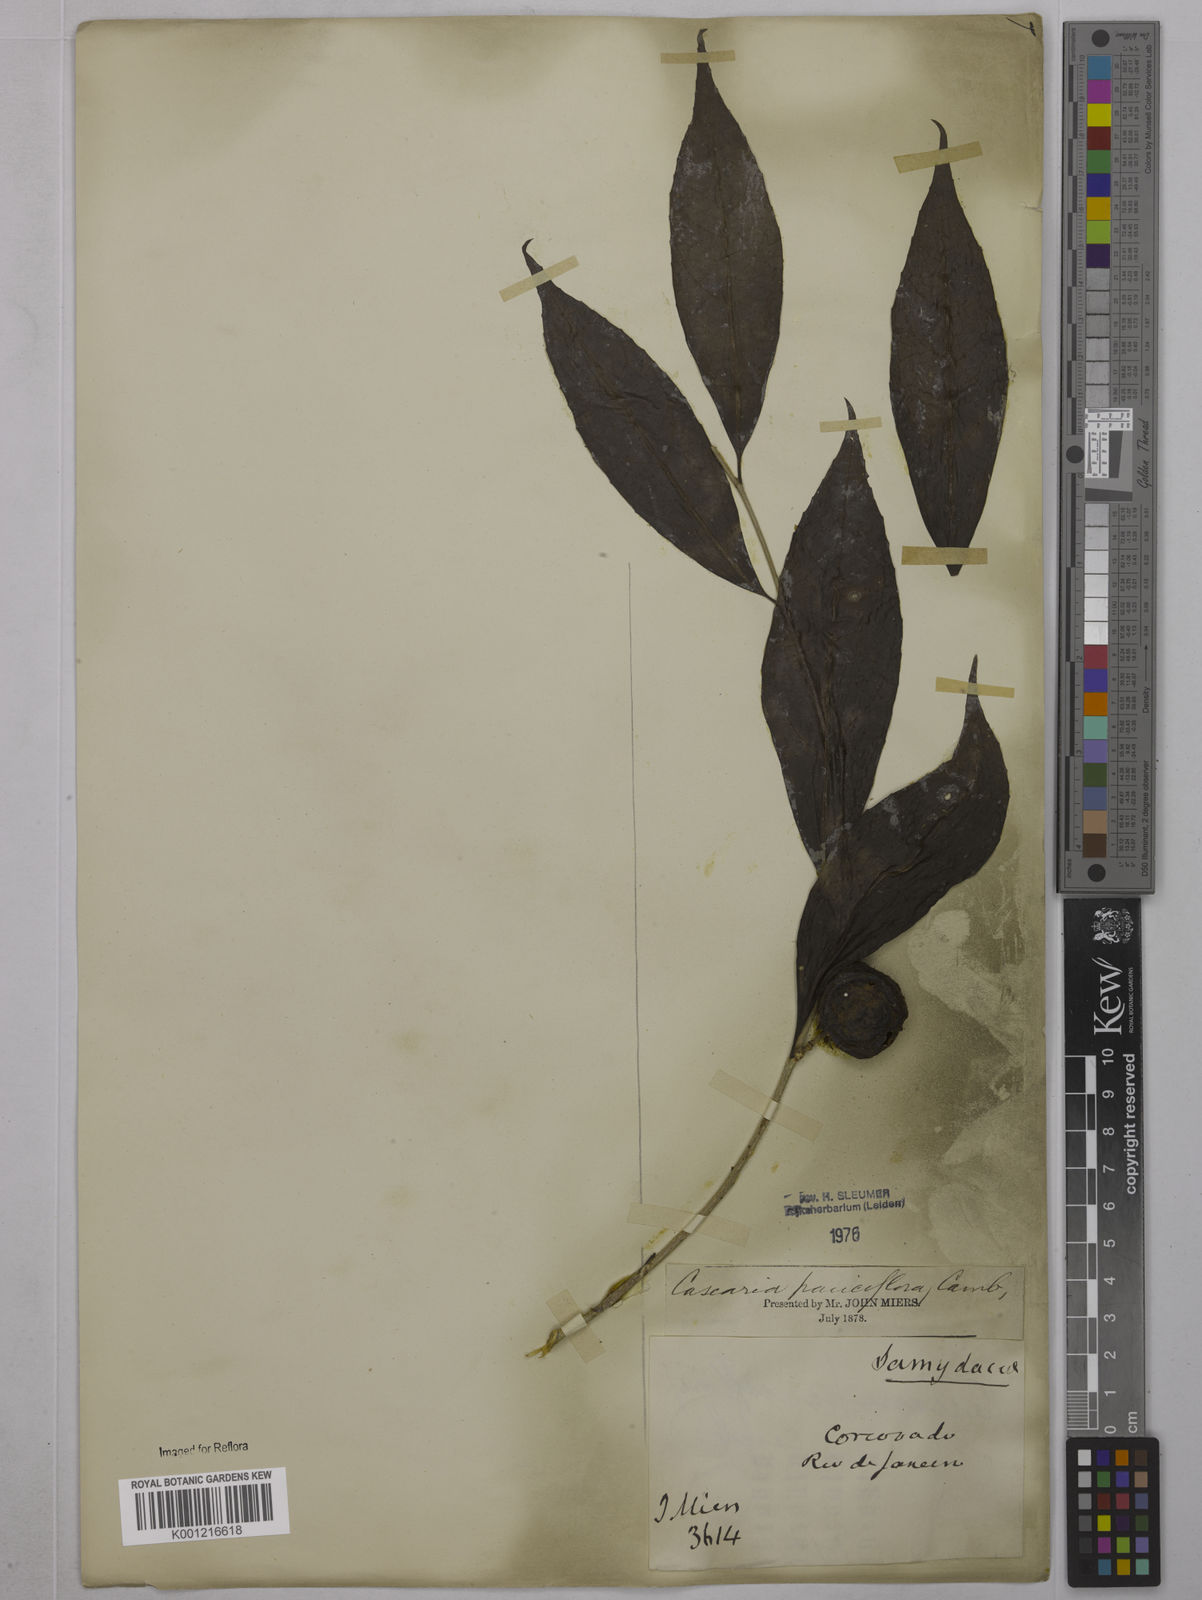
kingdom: Plantae
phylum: Tracheophyta
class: Magnoliopsida
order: Malpighiales
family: Salicaceae
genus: Casearia
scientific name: Casearia pauciflora
